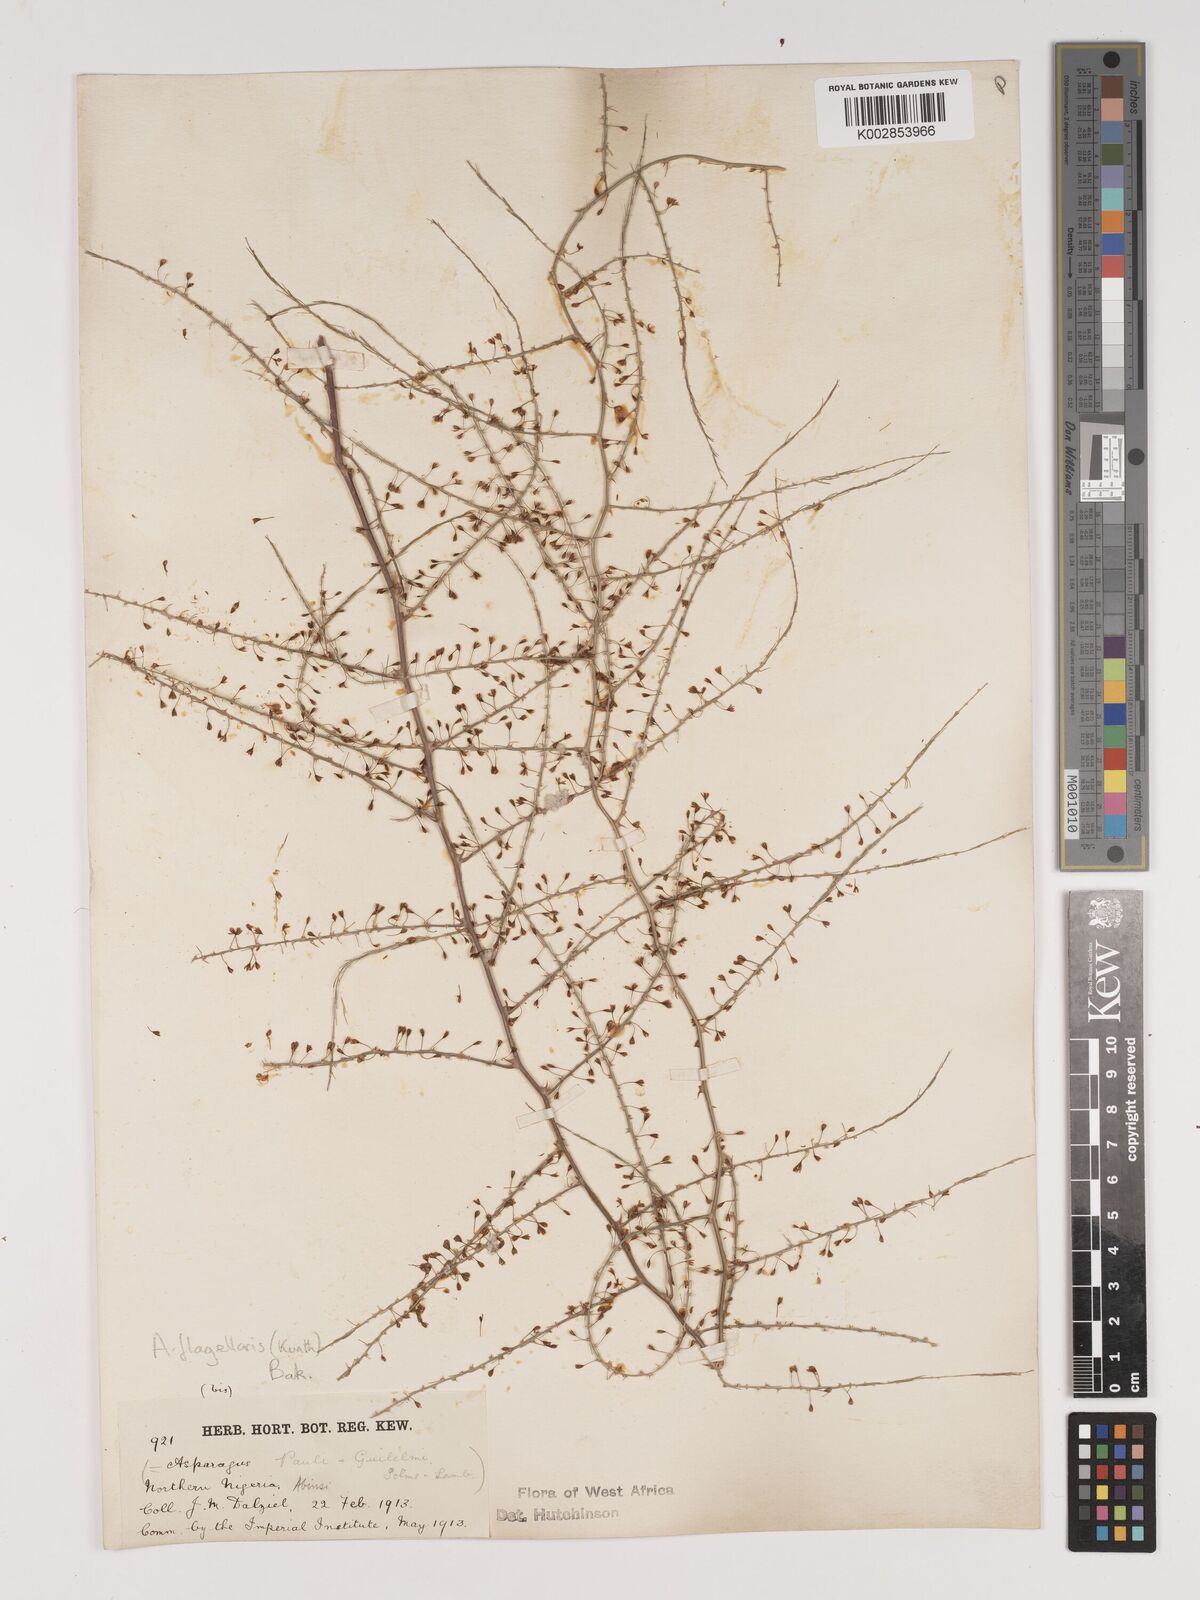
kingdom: Plantae
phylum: Tracheophyta
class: Liliopsida
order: Asparagales
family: Asparagaceae
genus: Asparagus
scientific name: Asparagus flagellaris
